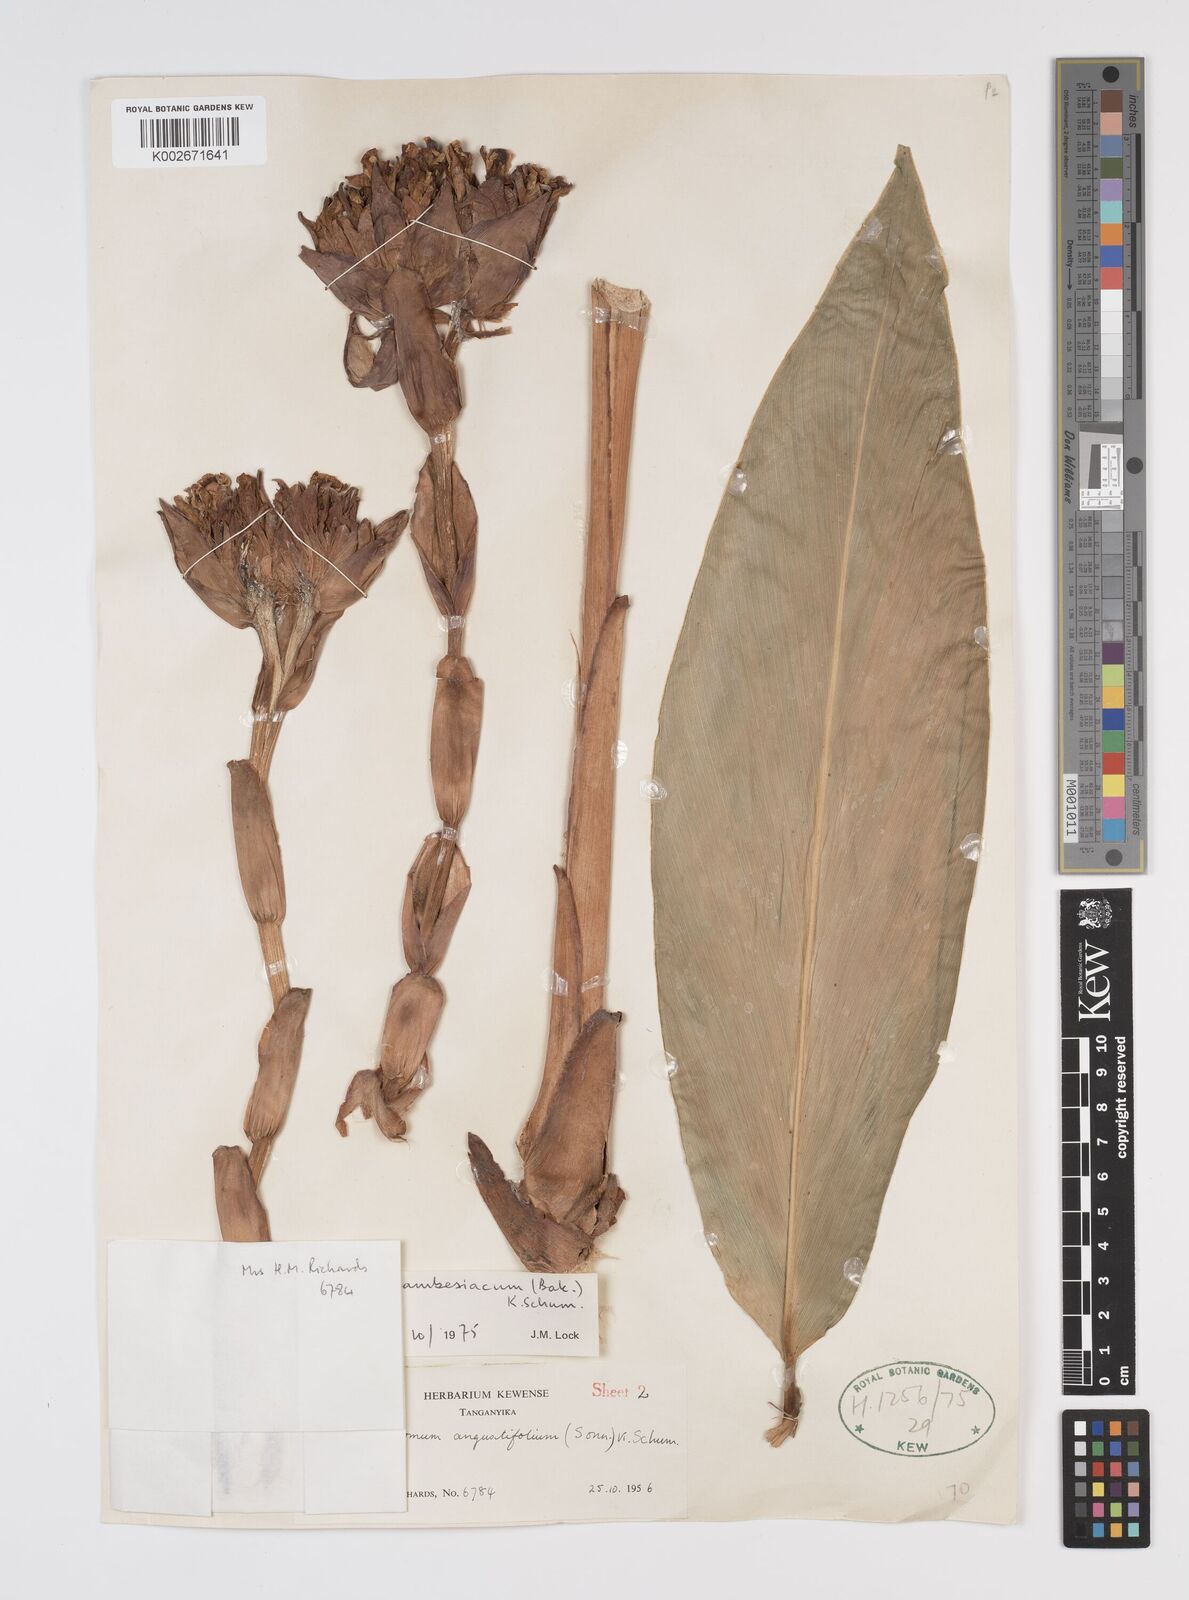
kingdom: Plantae
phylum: Tracheophyta
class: Liliopsida
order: Zingiberales
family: Zingiberaceae
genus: Aframomum
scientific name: Aframomum zambesiacum
